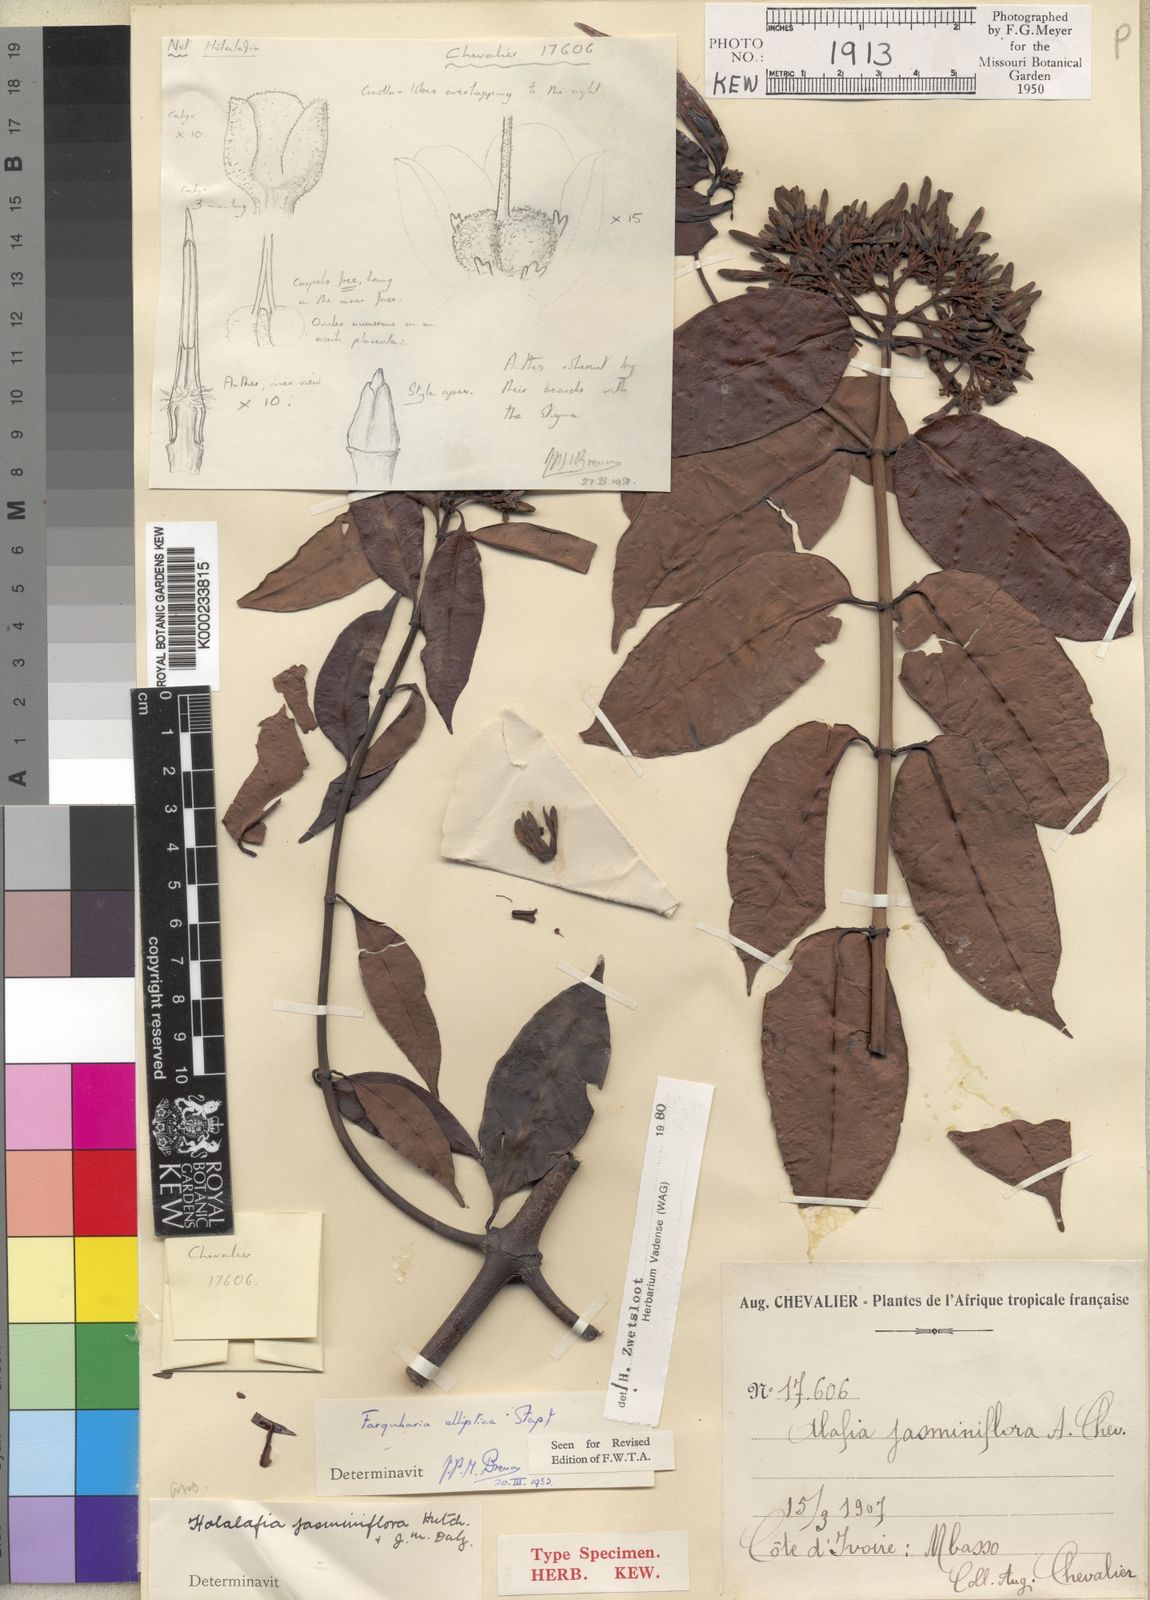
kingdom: Plantae
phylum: Tracheophyta
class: Magnoliopsida
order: Gentianales
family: Apocynaceae
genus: Farquharia
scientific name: Farquharia elliptica
